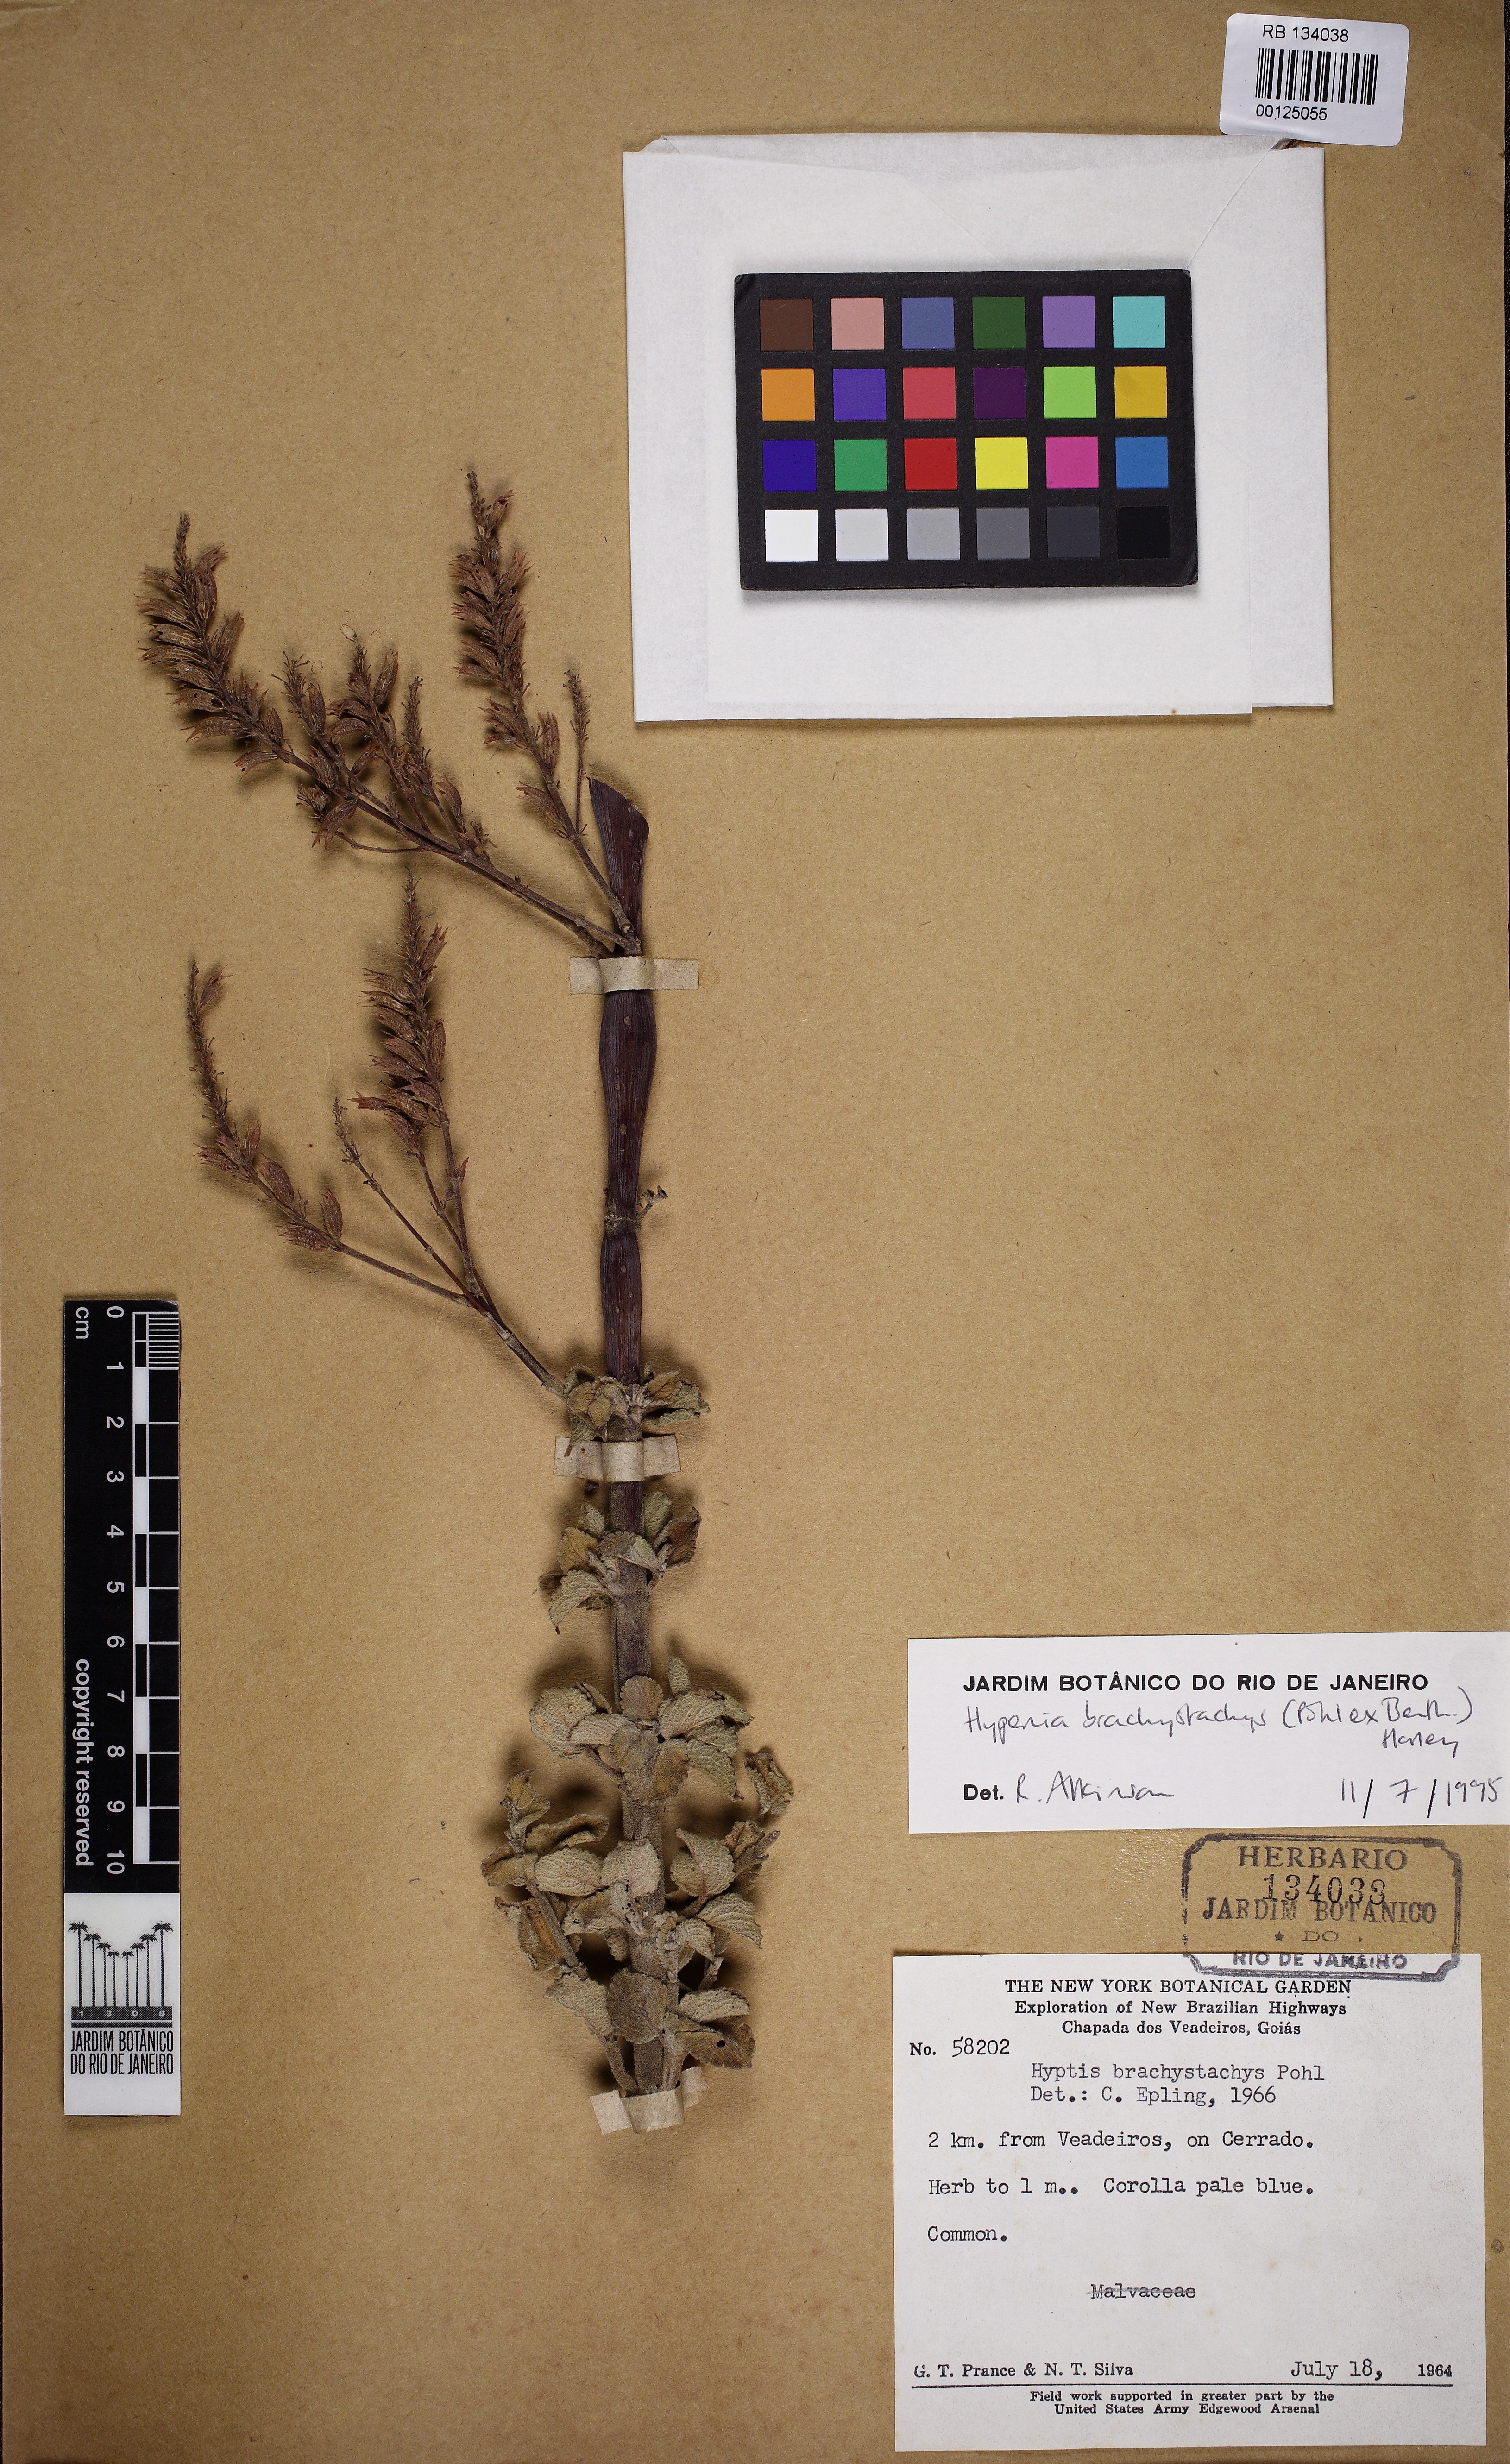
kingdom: Plantae
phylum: Tracheophyta
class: Magnoliopsida
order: Lamiales
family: Lamiaceae
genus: Hypenia
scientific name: Hypenia brachystachys
